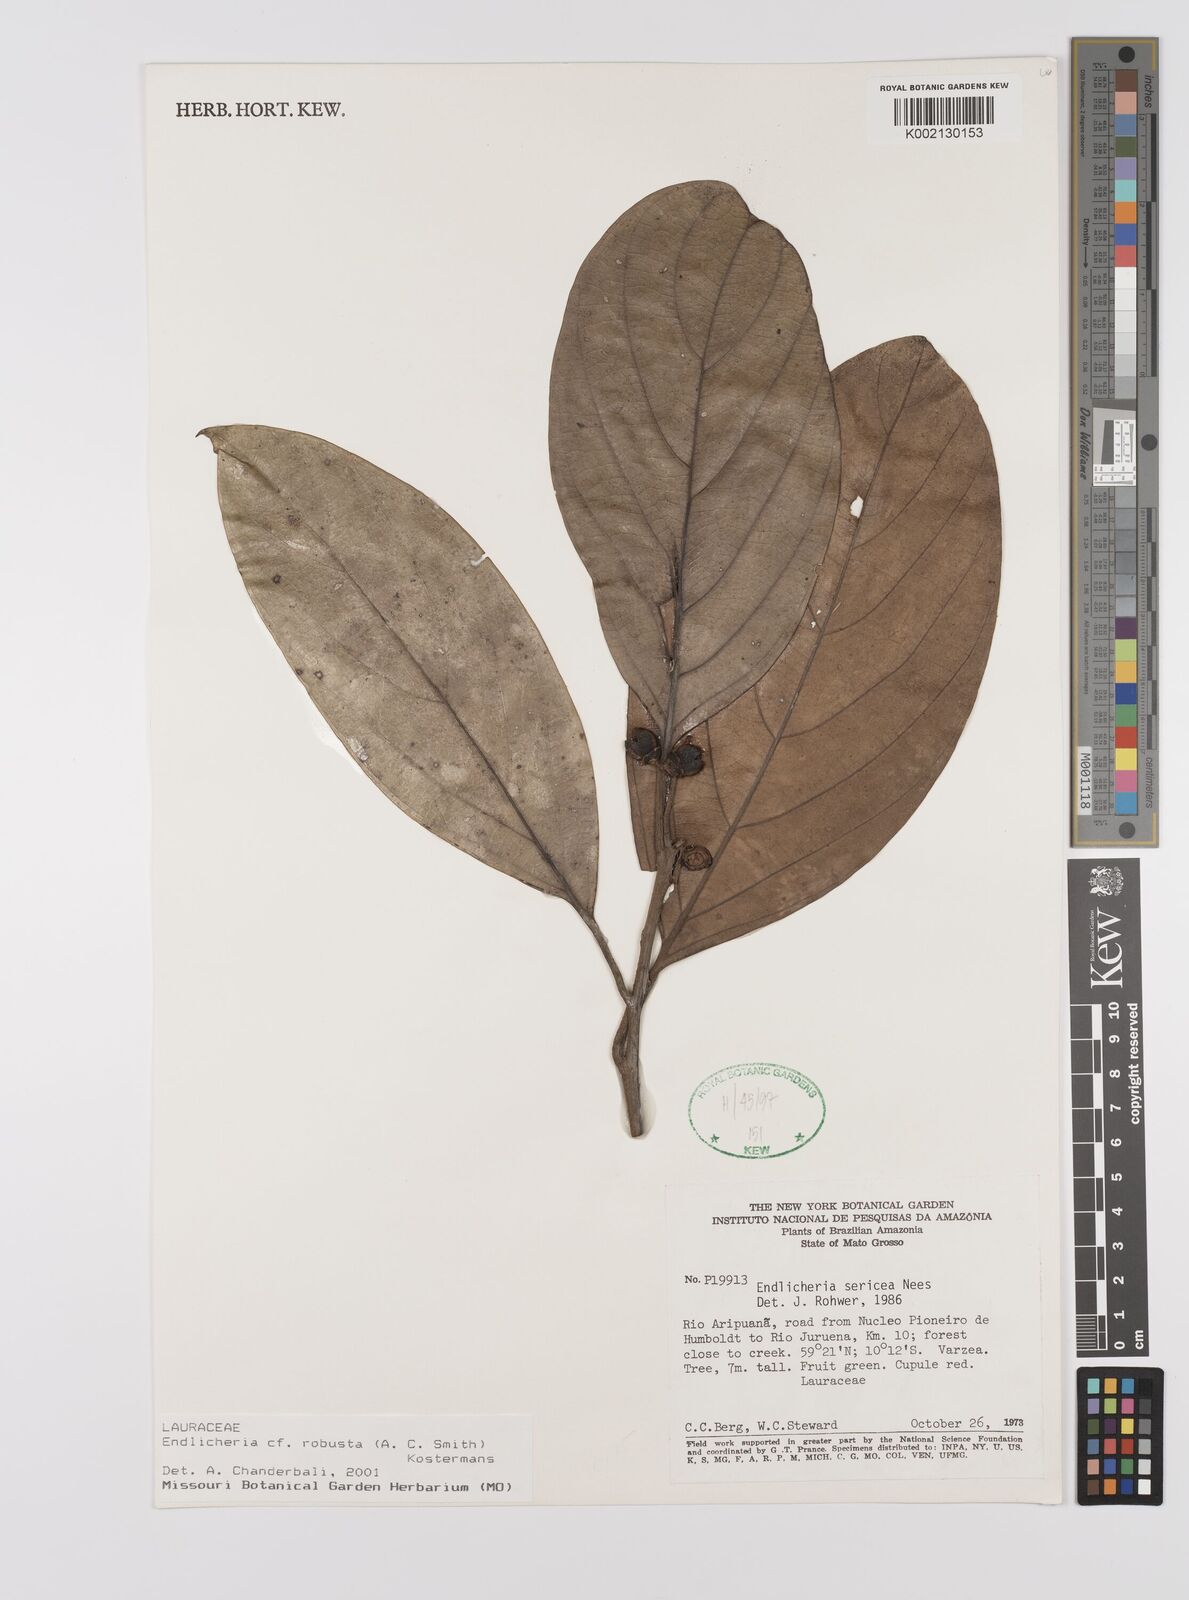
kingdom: Plantae
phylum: Tracheophyta
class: Magnoliopsida
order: Laurales
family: Lauraceae
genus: Endlicheria
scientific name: Endlicheria sericea
